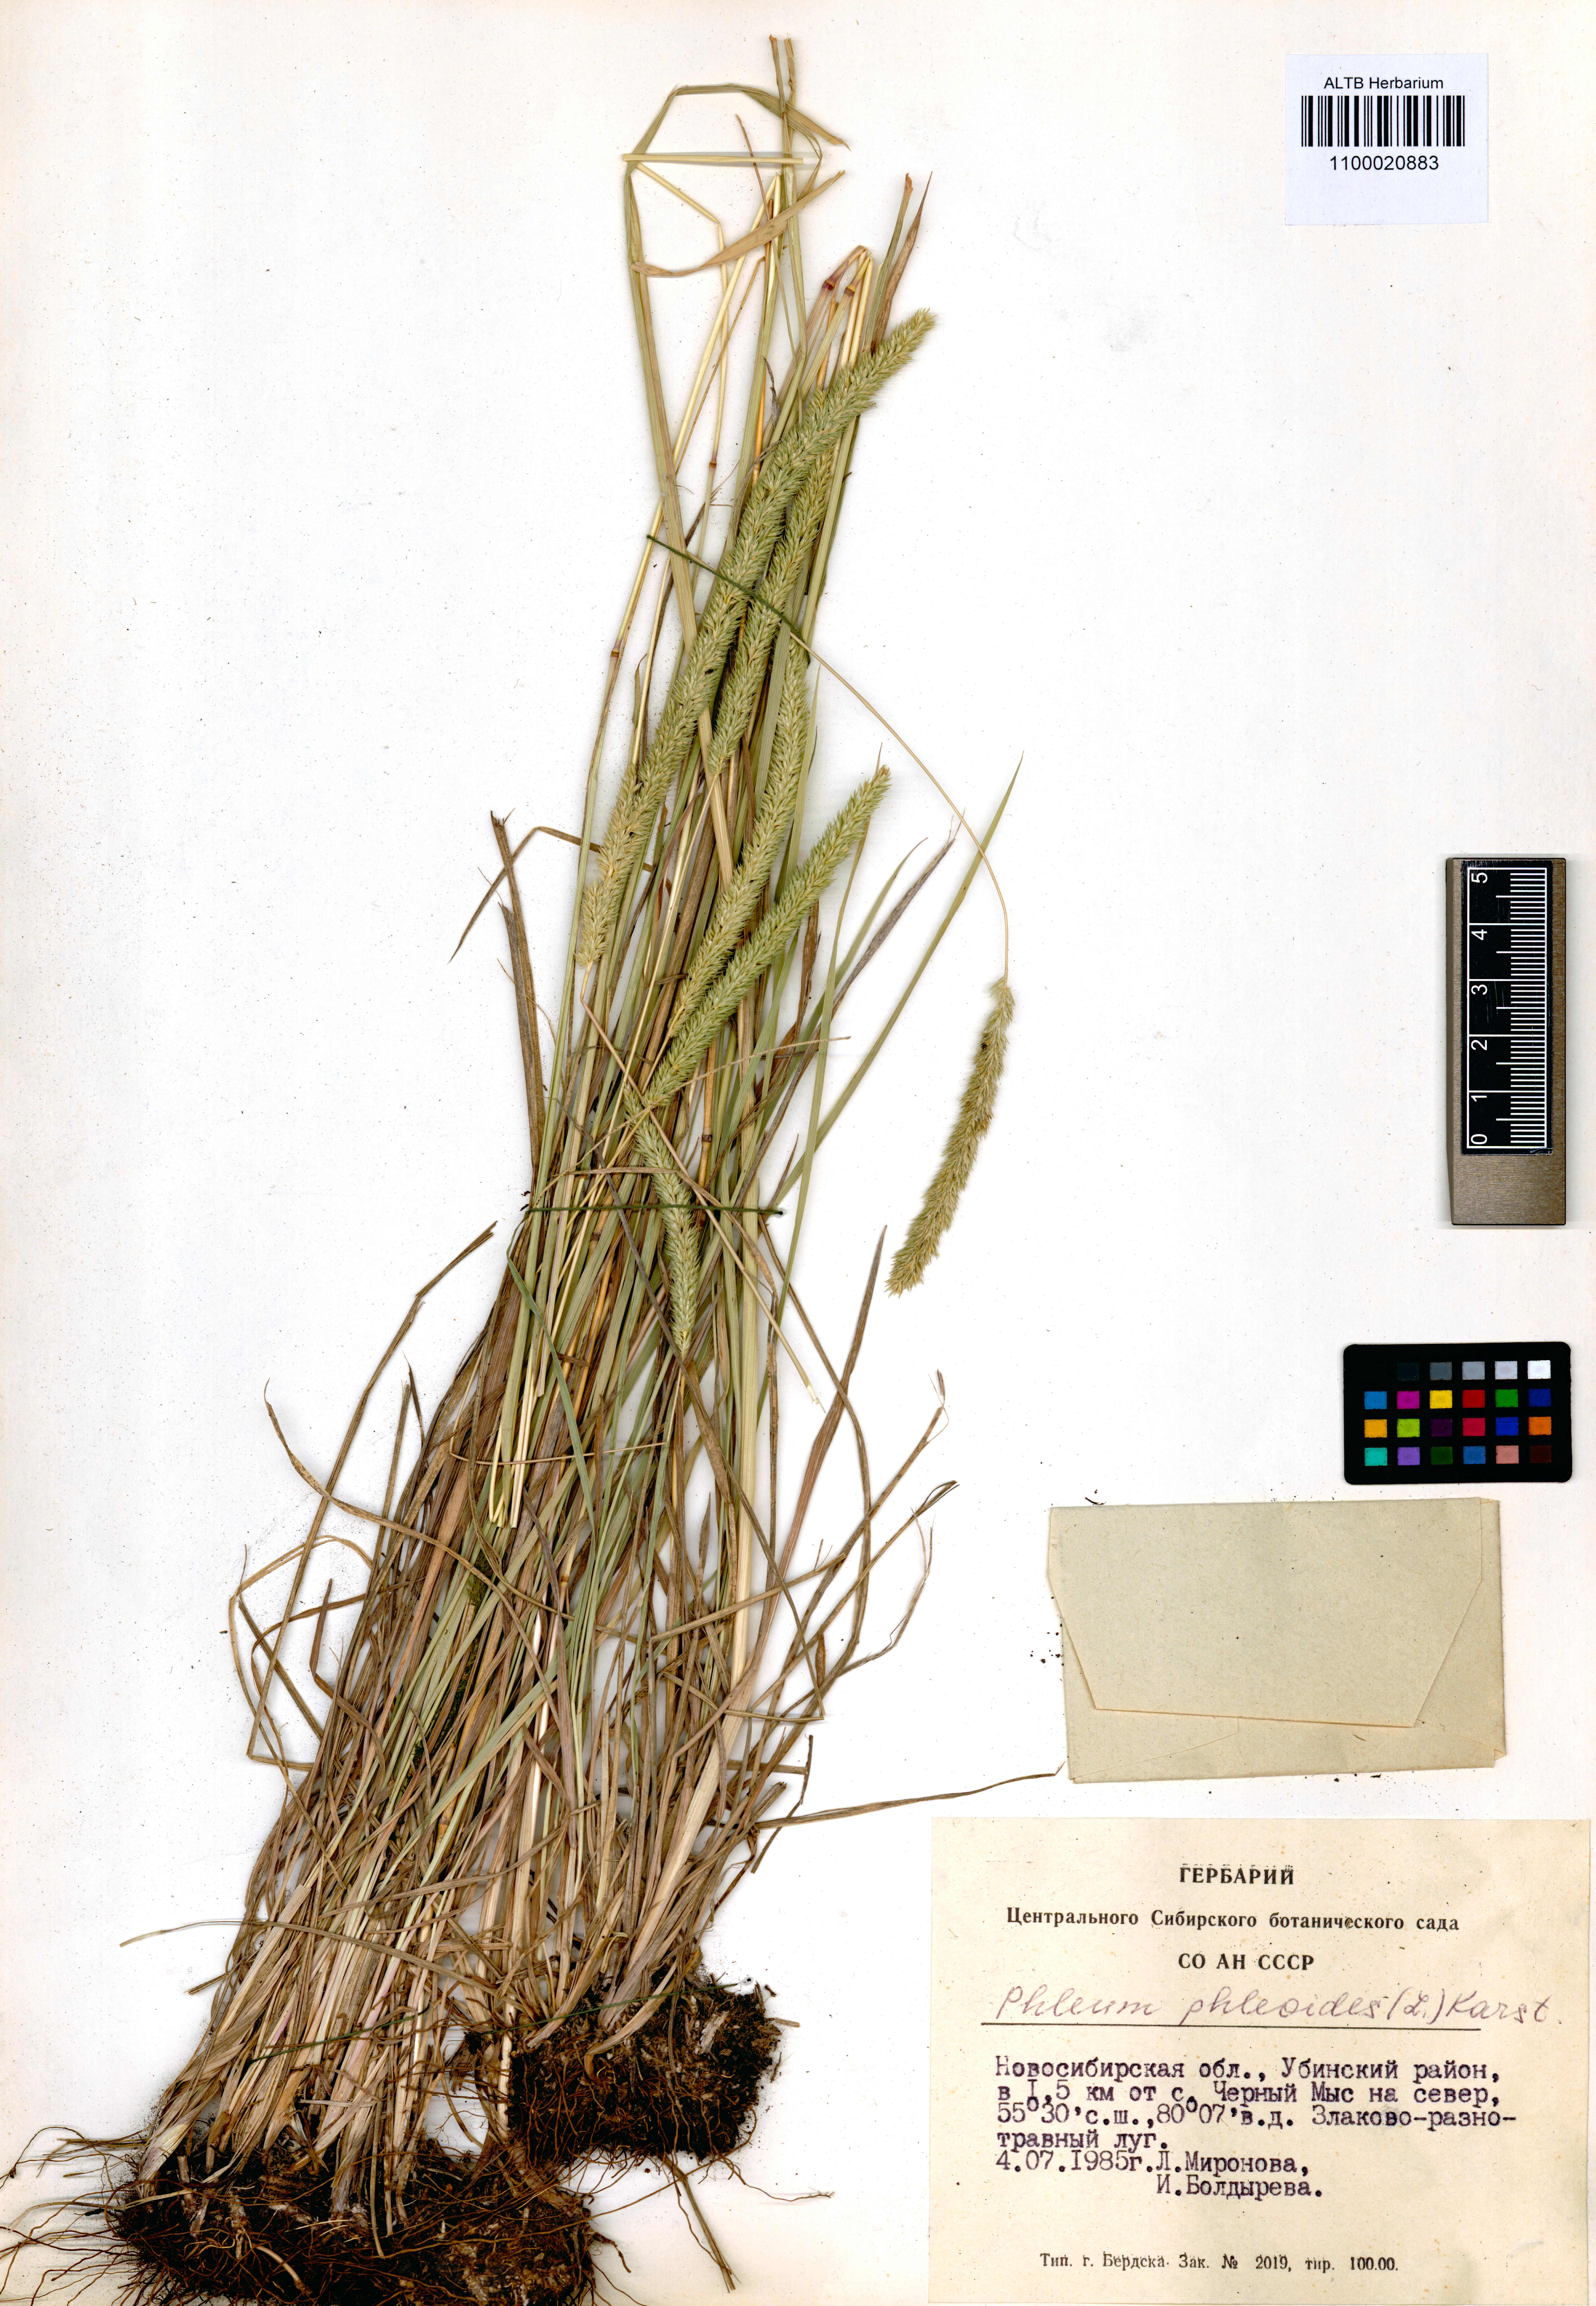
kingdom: Plantae
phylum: Tracheophyta
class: Liliopsida
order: Poales
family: Poaceae
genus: Phleum
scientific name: Phleum phleoides
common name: Purple-stem cat's-tail
